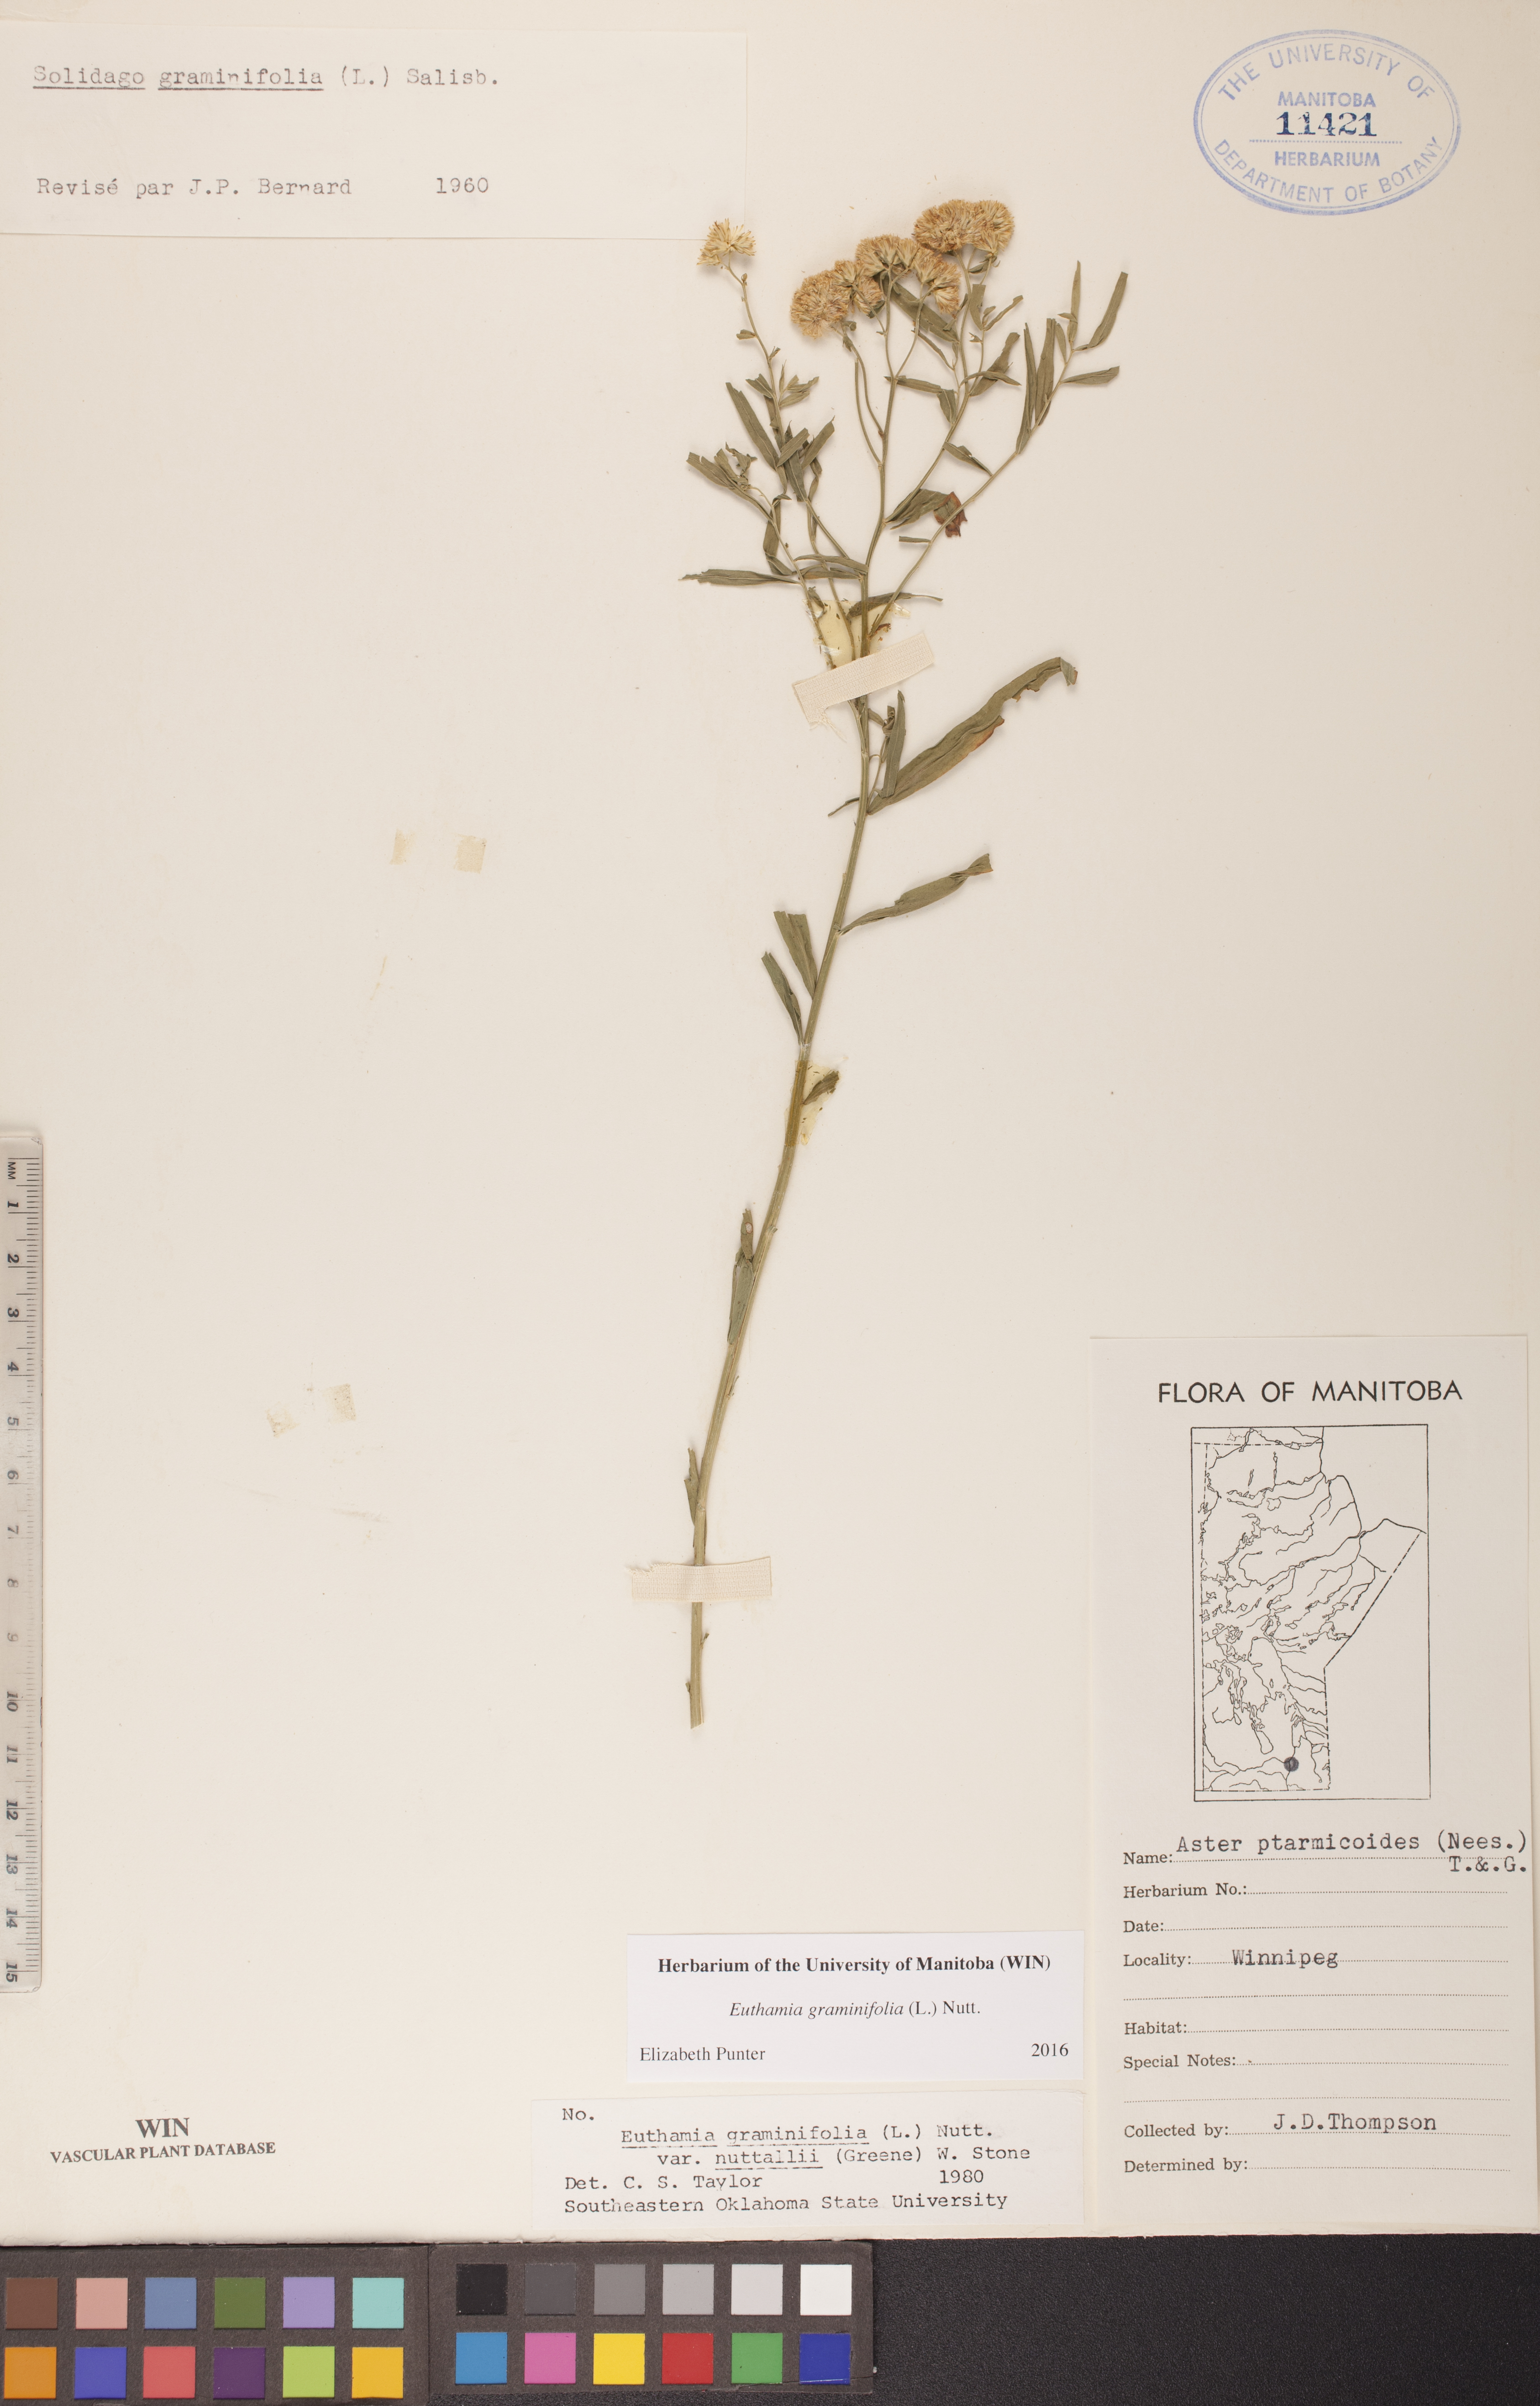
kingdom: Plantae
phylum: Tracheophyta
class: Magnoliopsida
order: Asterales
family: Asteraceae
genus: Euthamia
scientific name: Euthamia graminifolia
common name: Common goldentop
